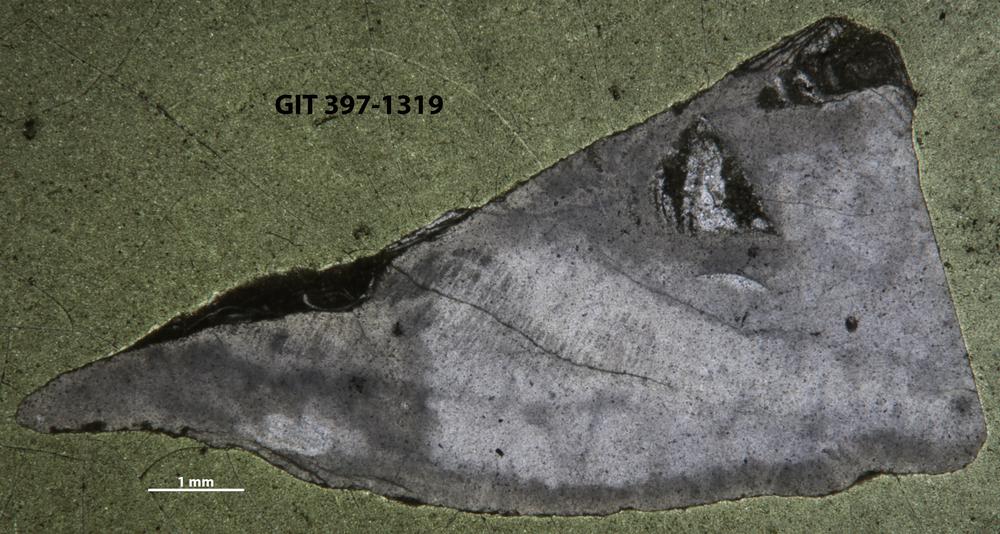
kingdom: Animalia
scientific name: Animalia
